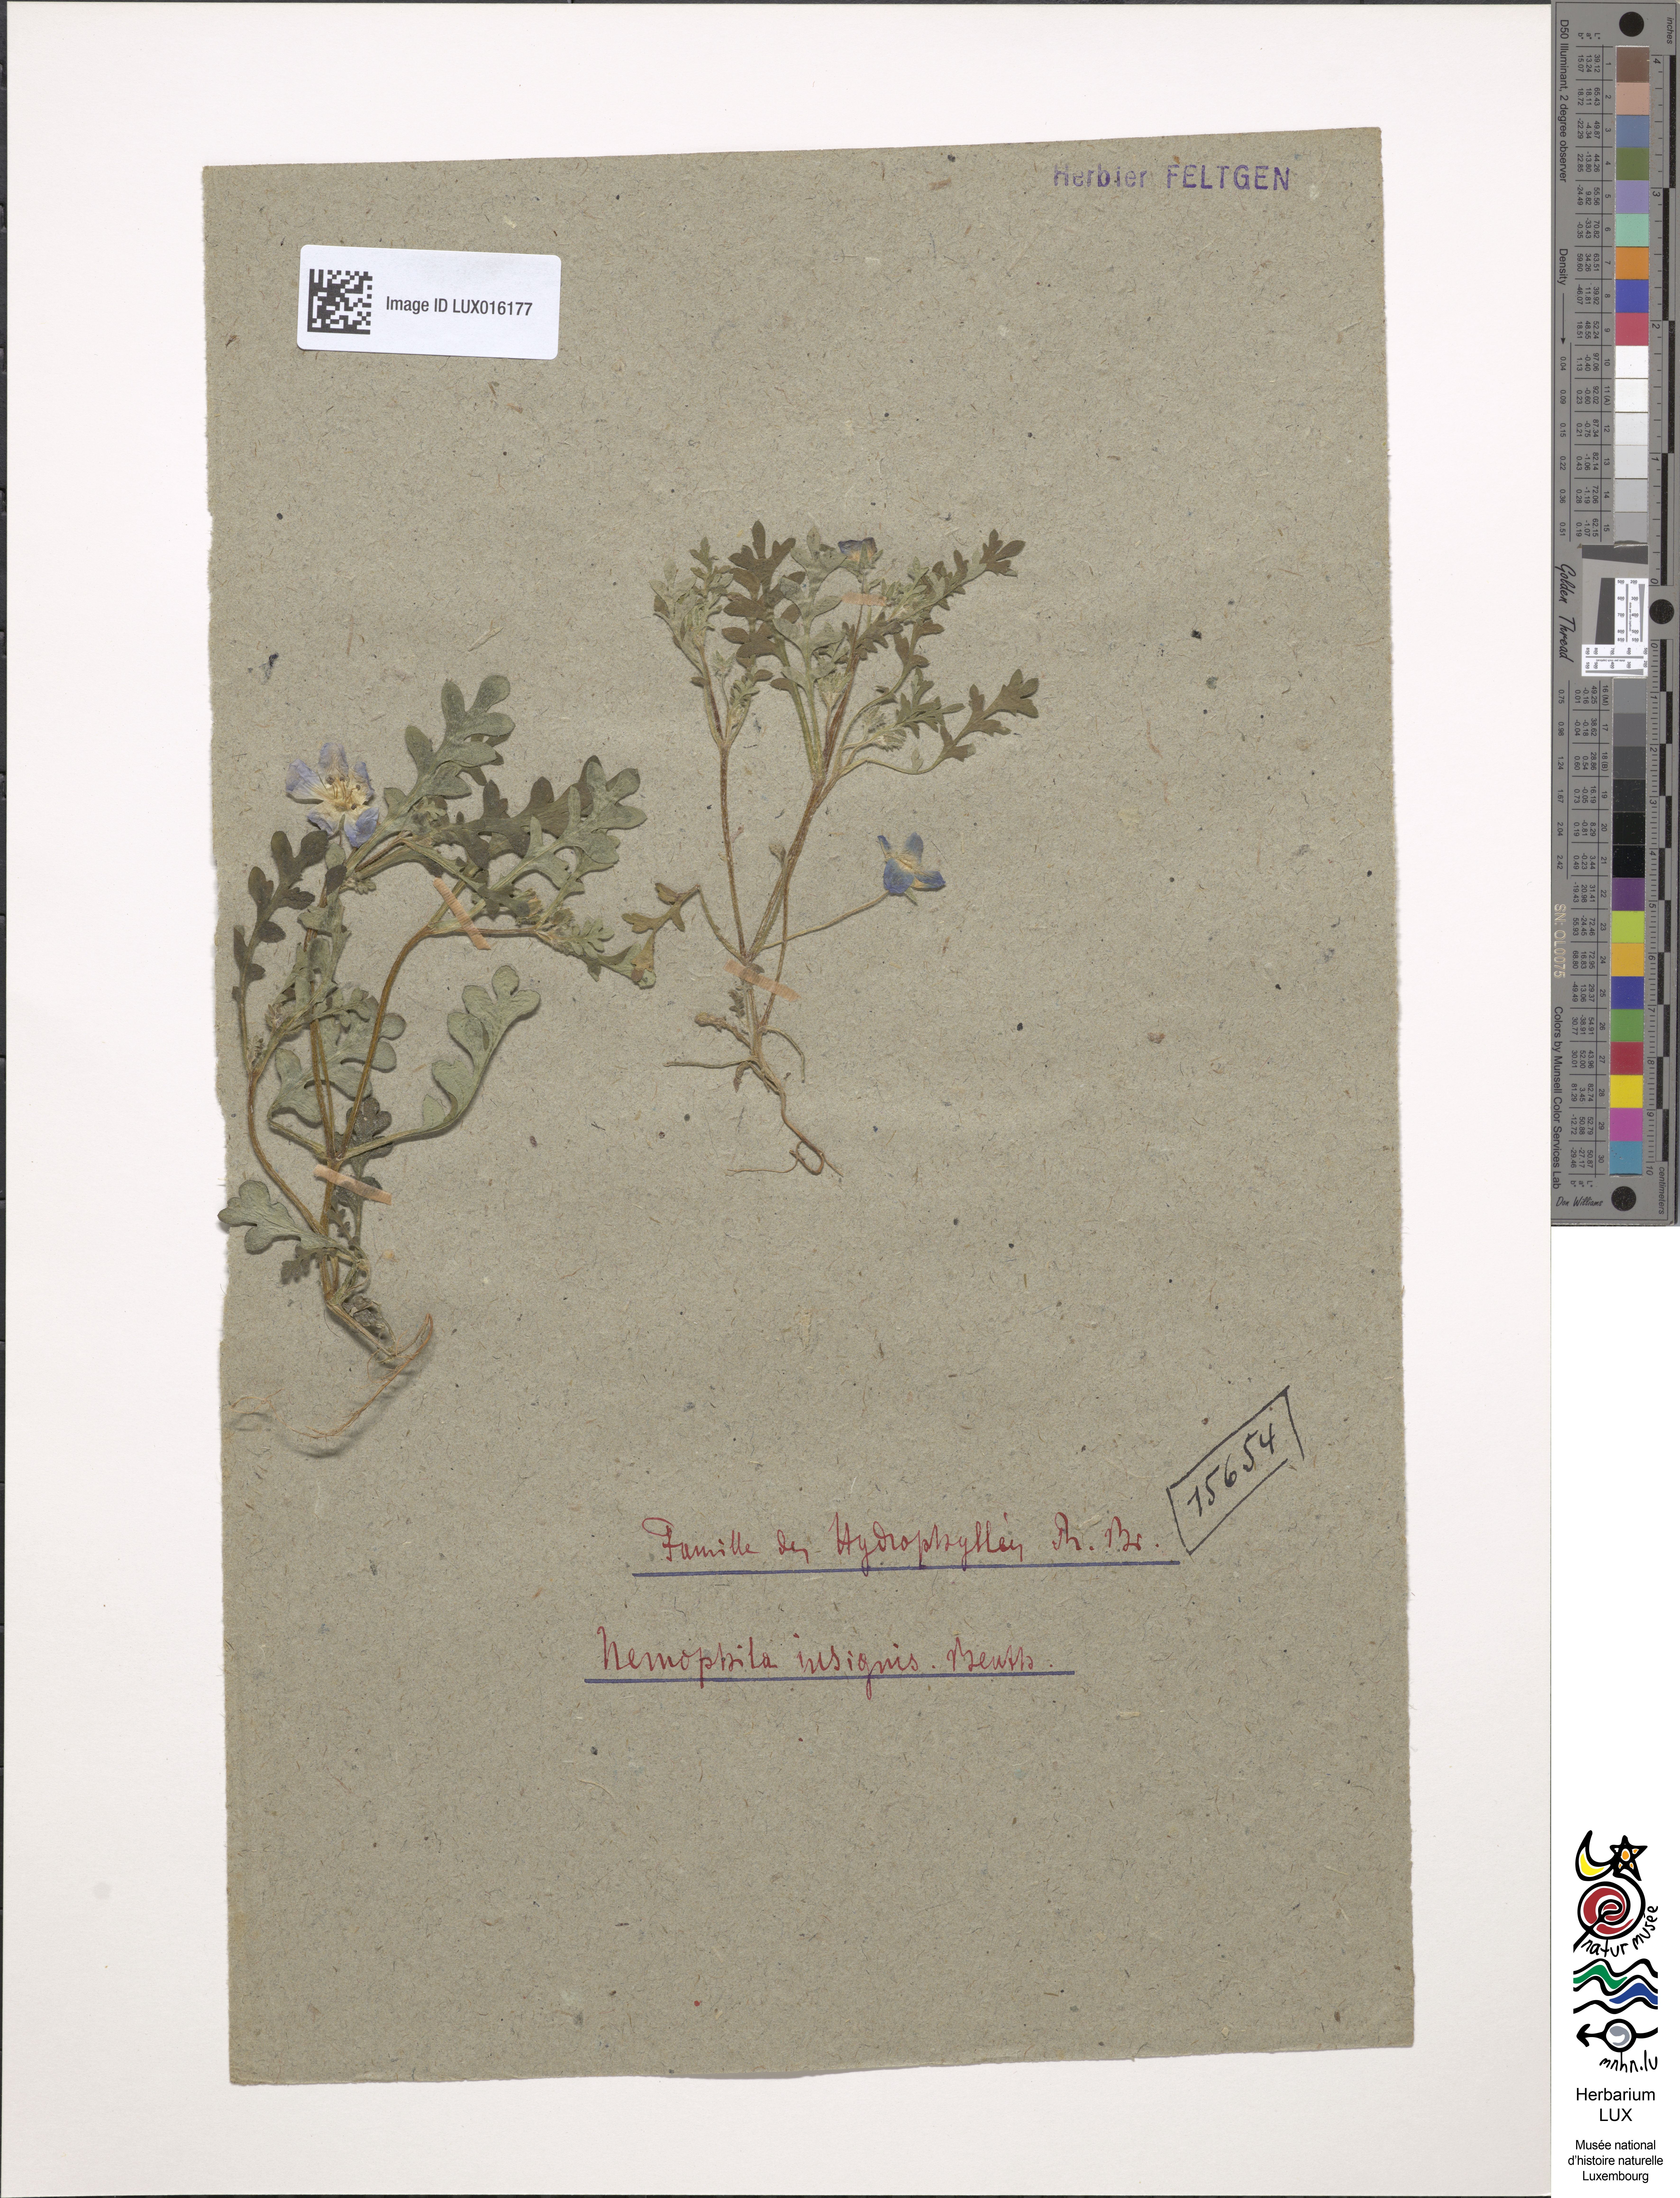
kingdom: Plantae
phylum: Tracheophyta
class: Magnoliopsida
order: Boraginales
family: Hydrophyllaceae
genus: Nemophila
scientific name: Nemophila menziesii
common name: Baby's-blue-eyes
